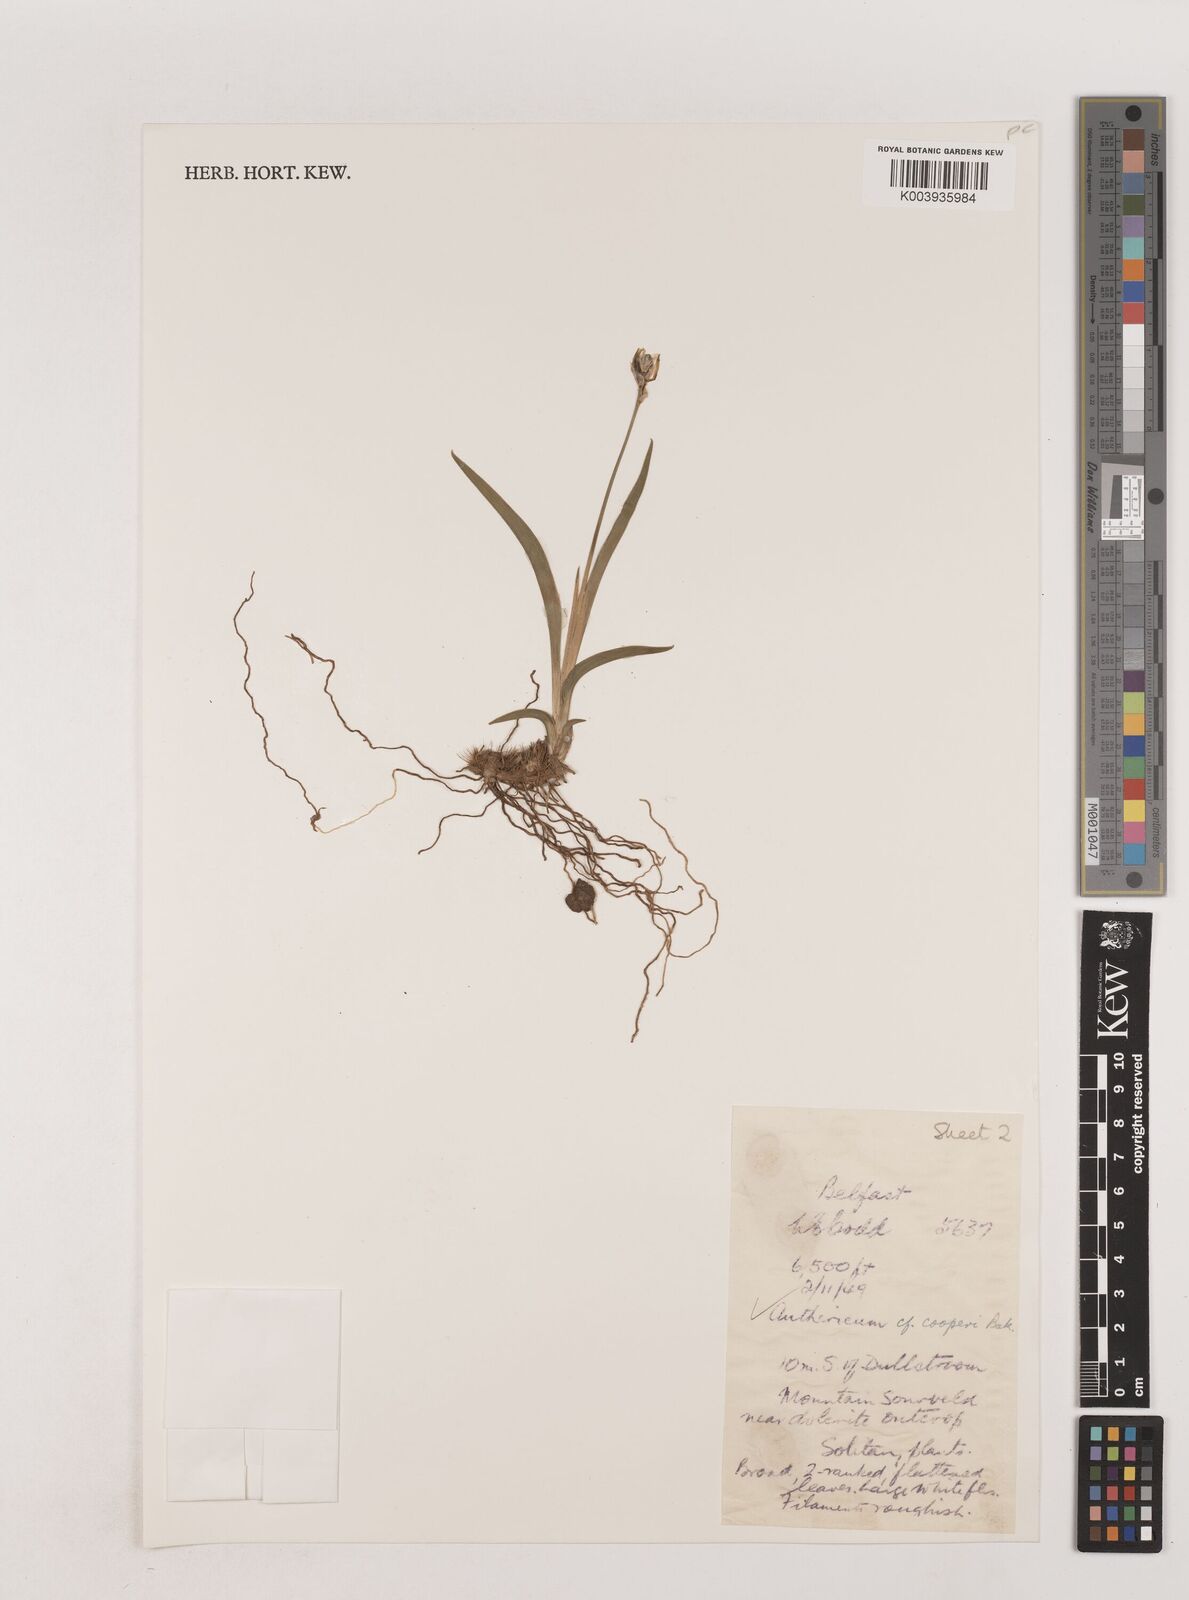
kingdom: Plantae
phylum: Tracheophyta
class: Liliopsida
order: Asparagales
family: Asparagaceae
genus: Chlorophytum
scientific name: Chlorophytum cooperi
